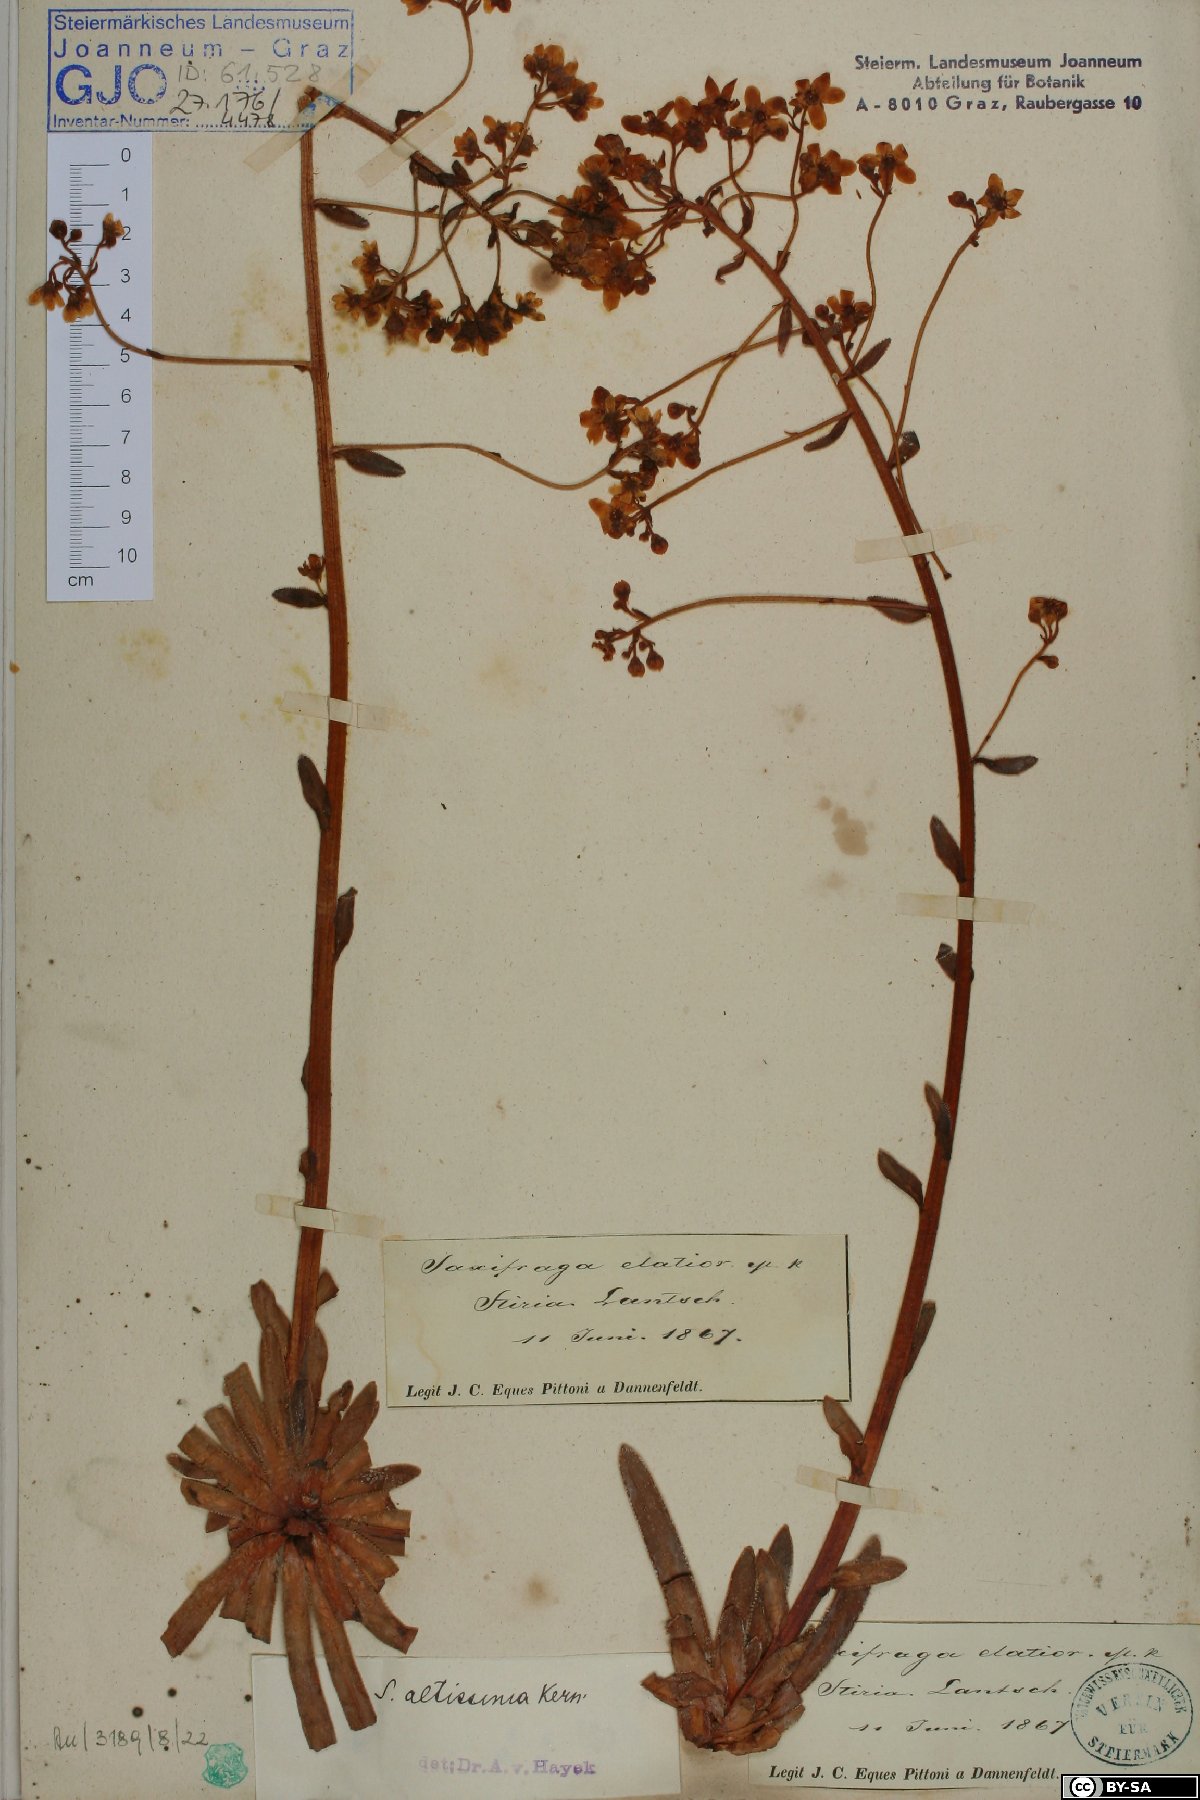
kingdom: Plantae
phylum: Tracheophyta
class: Magnoliopsida
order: Saxifragales
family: Saxifragaceae
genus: Saxifraga
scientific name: Saxifraga hostii
